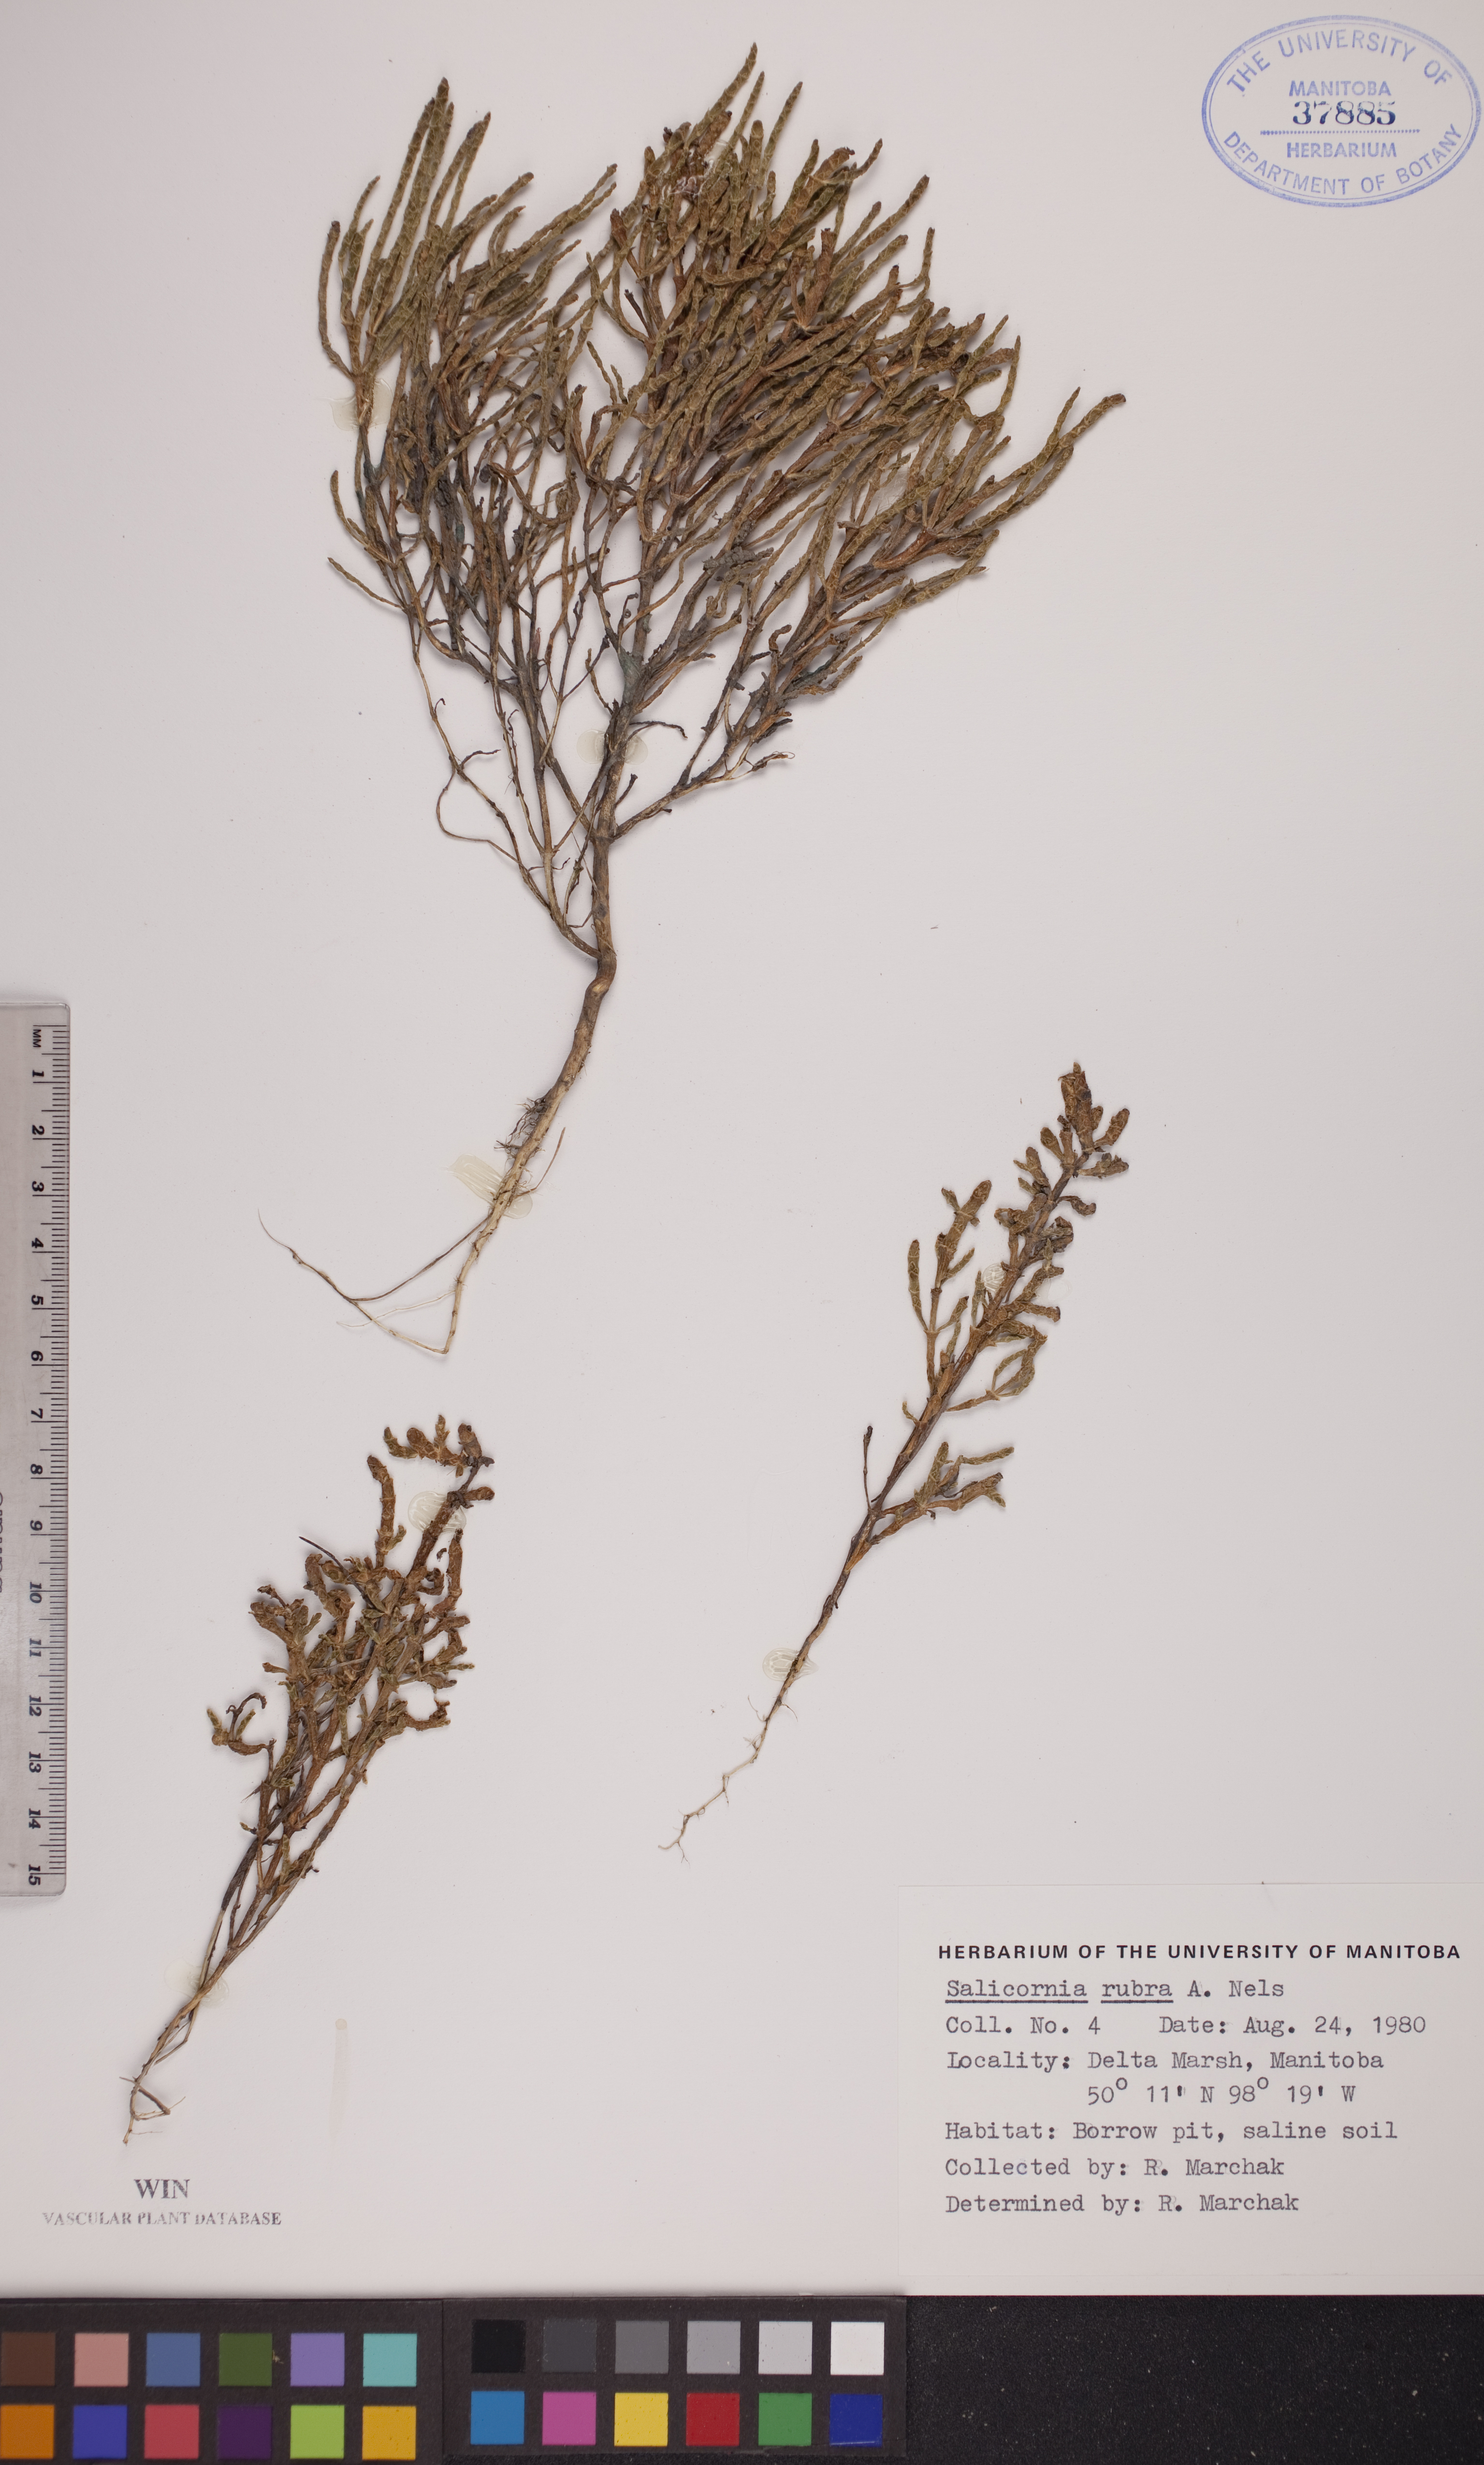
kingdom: Plantae
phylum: Tracheophyta
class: Magnoliopsida
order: Caryophyllales
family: Amaranthaceae
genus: Salicornia
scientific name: Salicornia rubra
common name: Red glasswort
